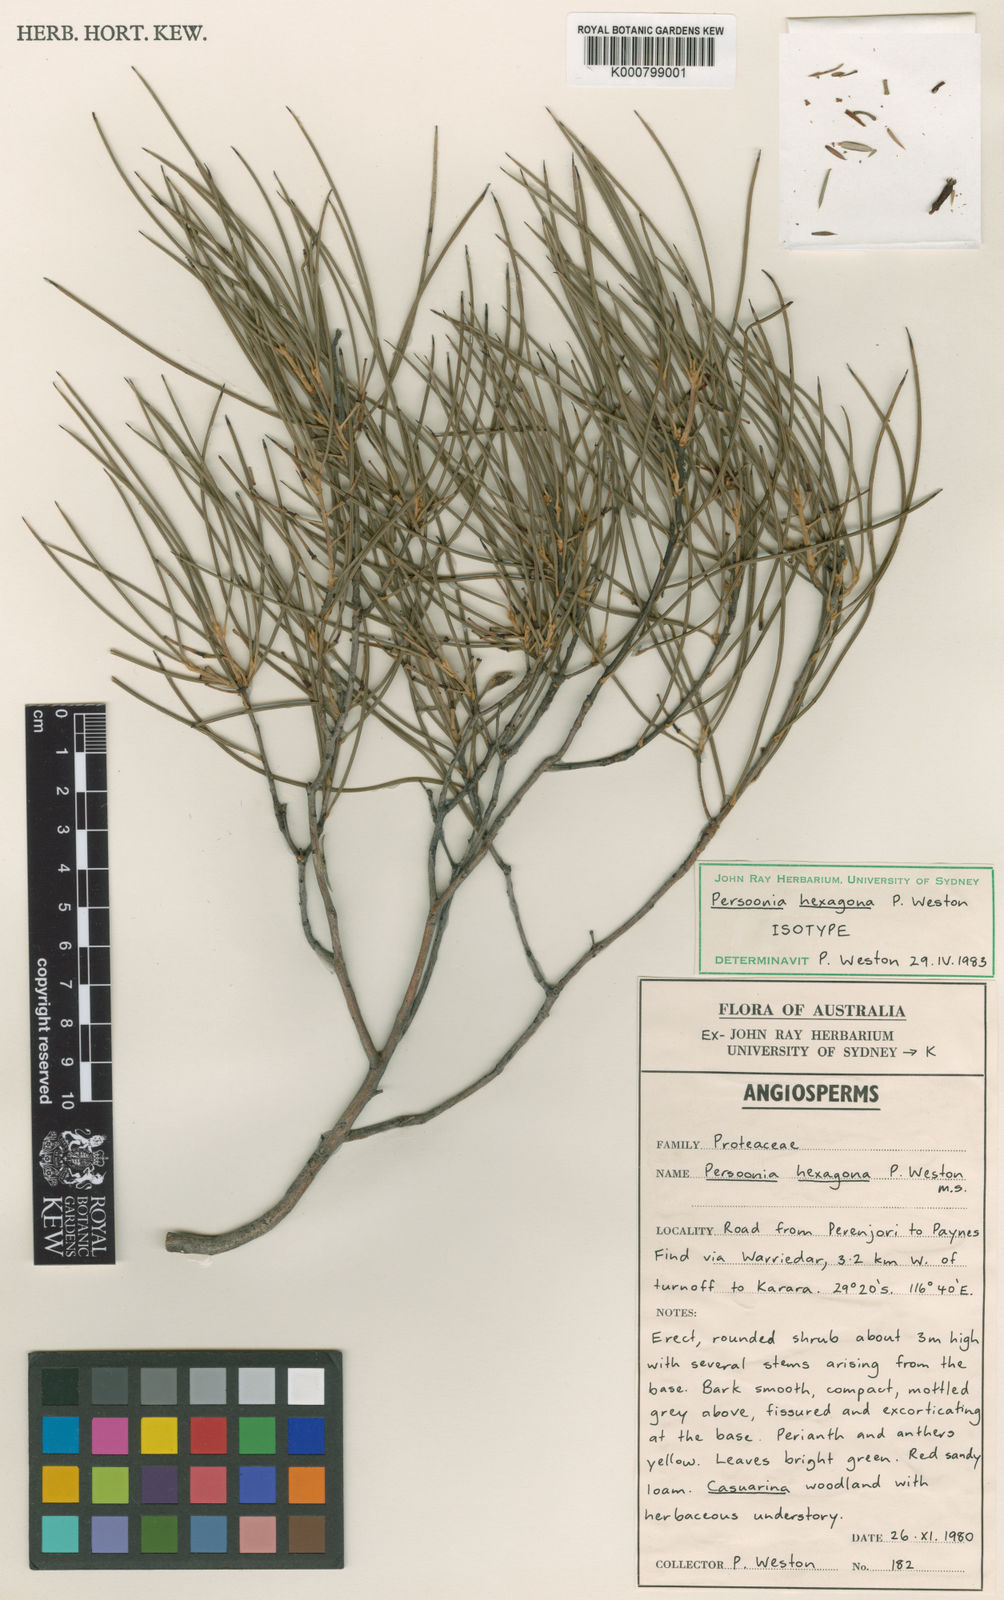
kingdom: Plantae
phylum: Tracheophyta
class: Magnoliopsida
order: Proteales
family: Proteaceae
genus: Persoonia
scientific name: Persoonia hexagona
